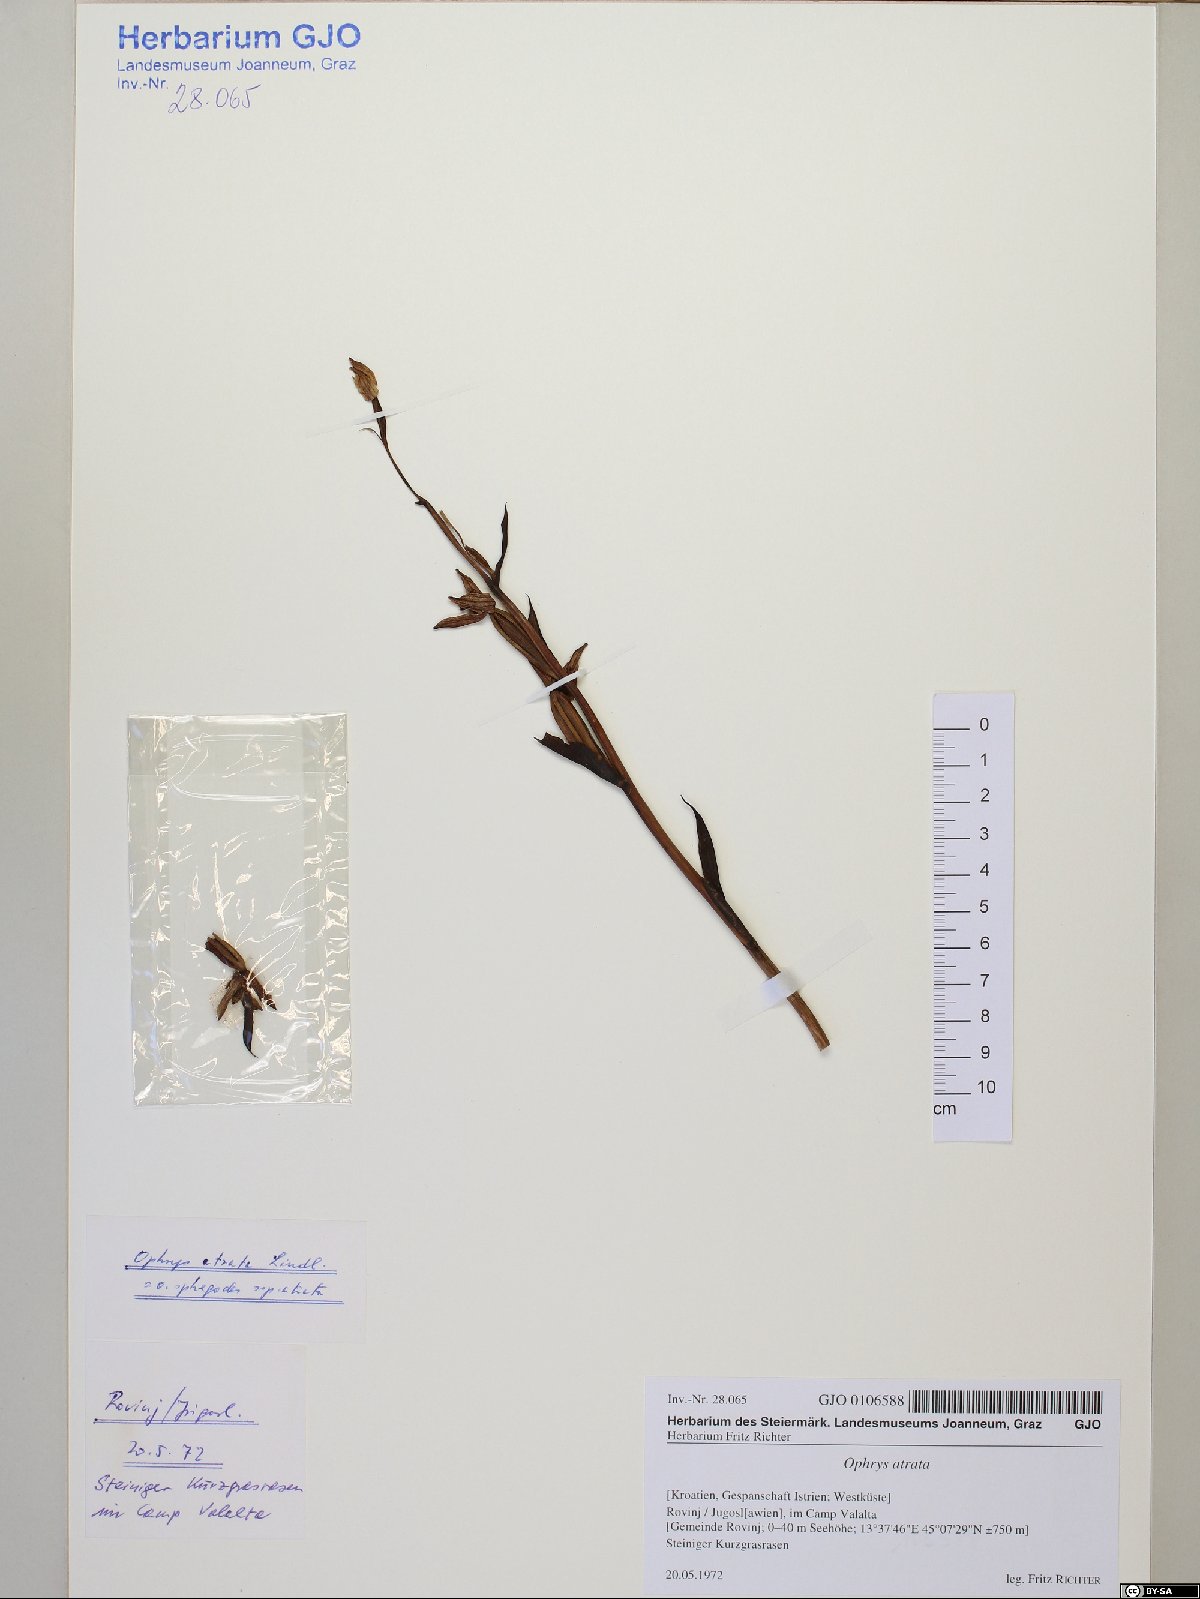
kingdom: Plantae
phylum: Tracheophyta
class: Liliopsida
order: Asparagales
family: Orchidaceae
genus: Ophrys
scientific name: Ophrys sphegodes
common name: Early spider-orchid
